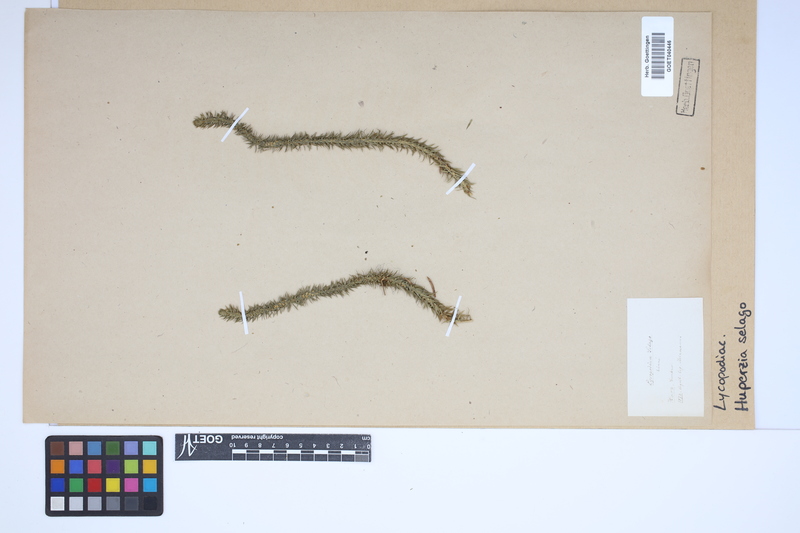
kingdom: Plantae
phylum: Tracheophyta
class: Lycopodiopsida
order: Lycopodiales
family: Lycopodiaceae
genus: Huperzia
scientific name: Huperzia selago
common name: Northern firmoss
